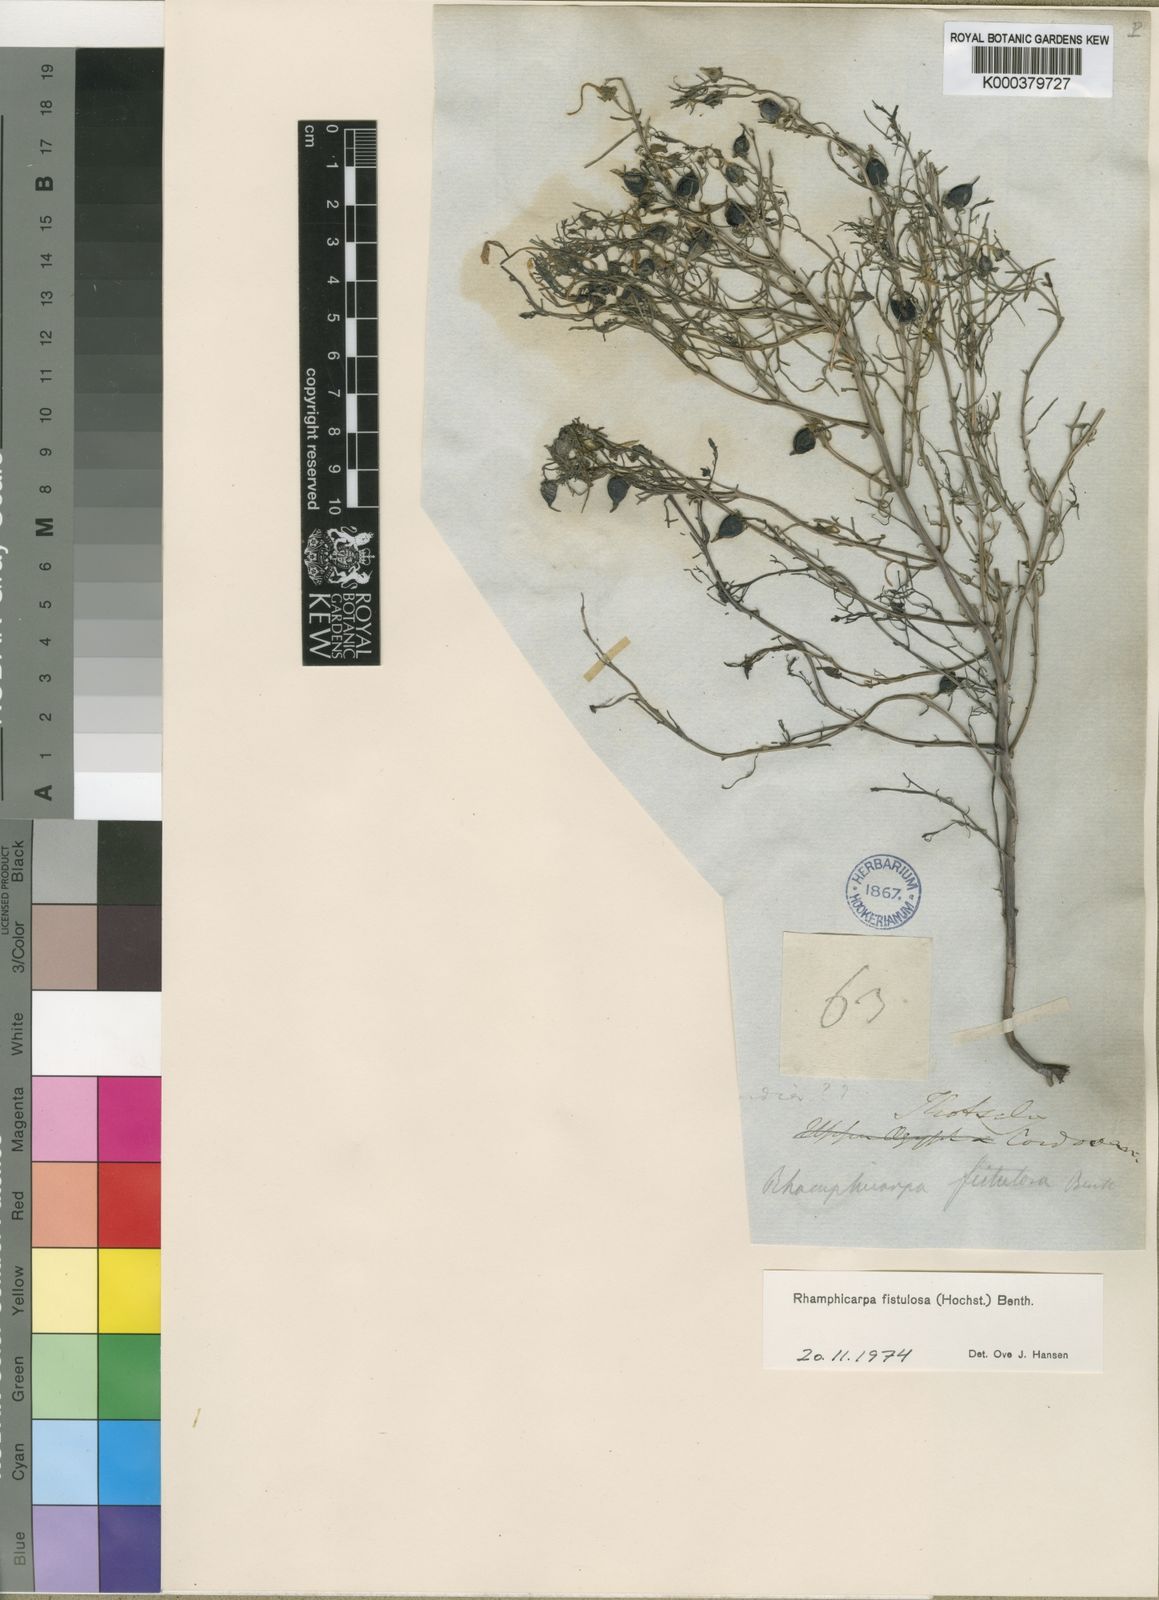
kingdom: Plantae
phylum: Tracheophyta
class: Magnoliopsida
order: Lamiales
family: Orobanchaceae
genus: Rhamphicarpa
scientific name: Rhamphicarpa fistulosa
